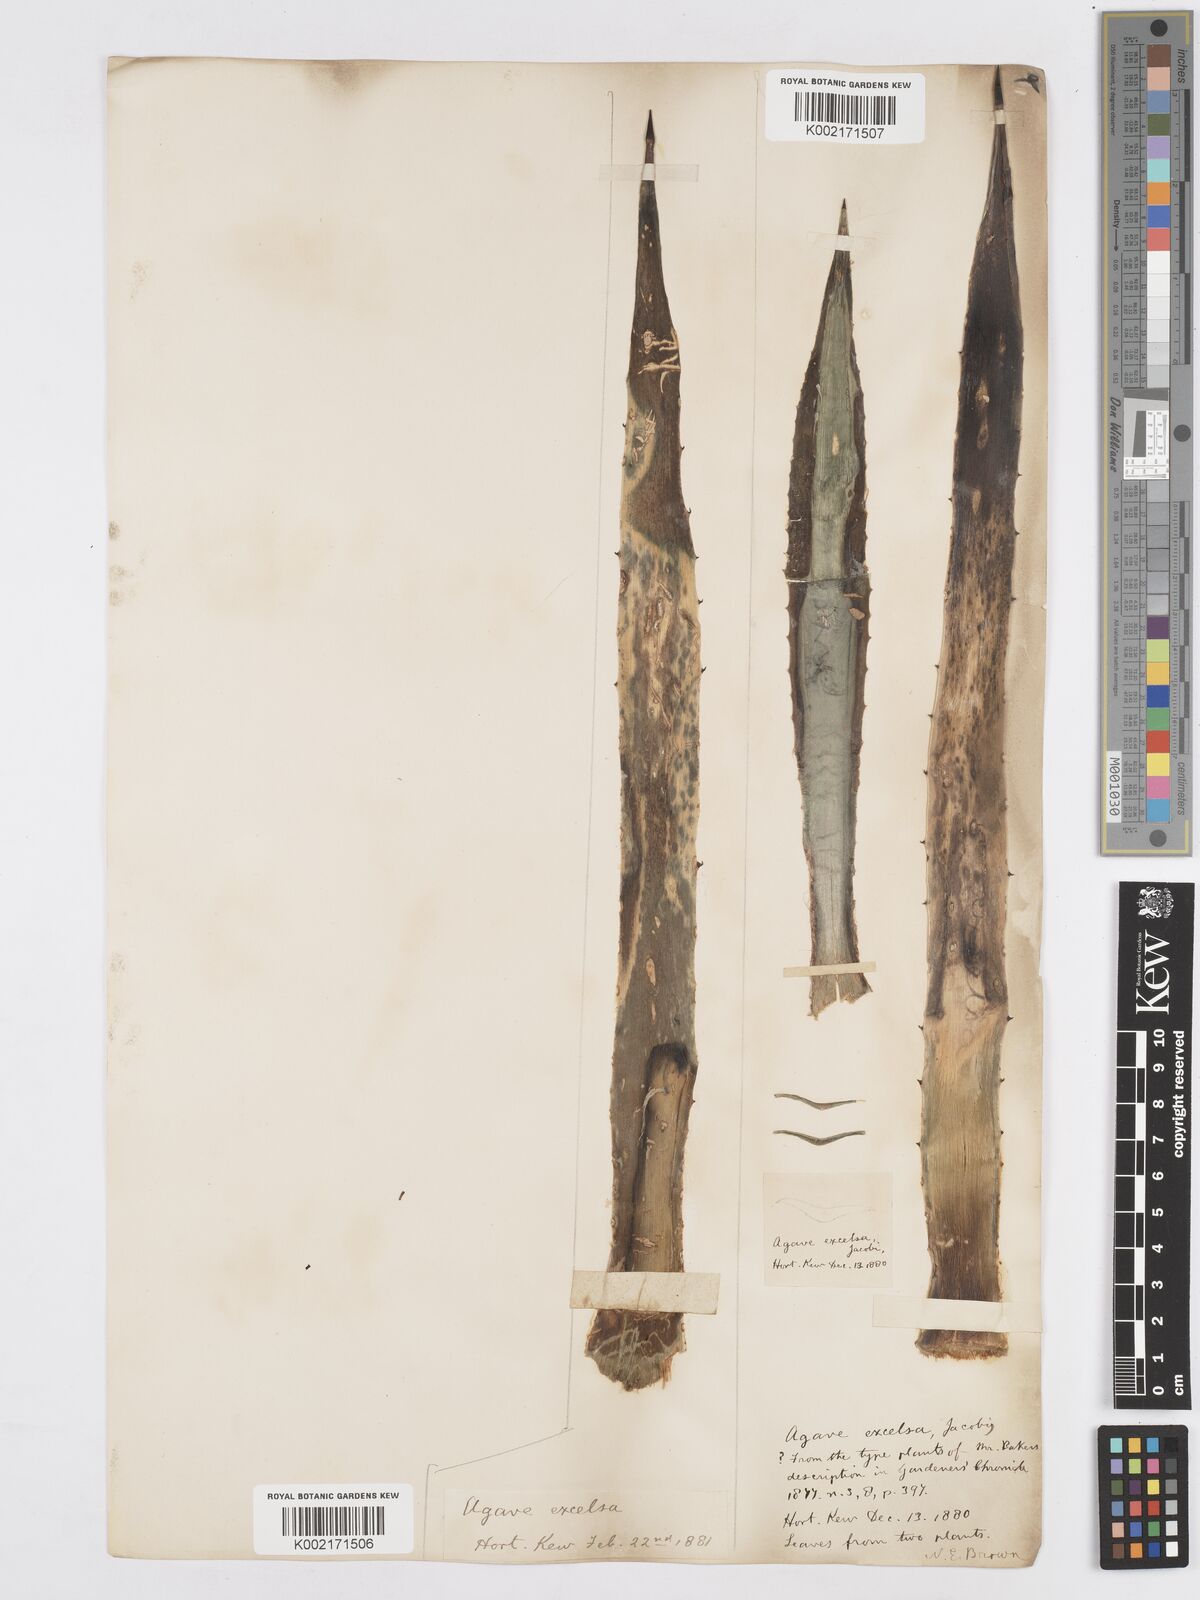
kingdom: Plantae
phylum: Tracheophyta
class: Liliopsida
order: Asparagales
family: Asparagaceae
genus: Agave
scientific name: Agave angustifolia
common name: Mescal agave
